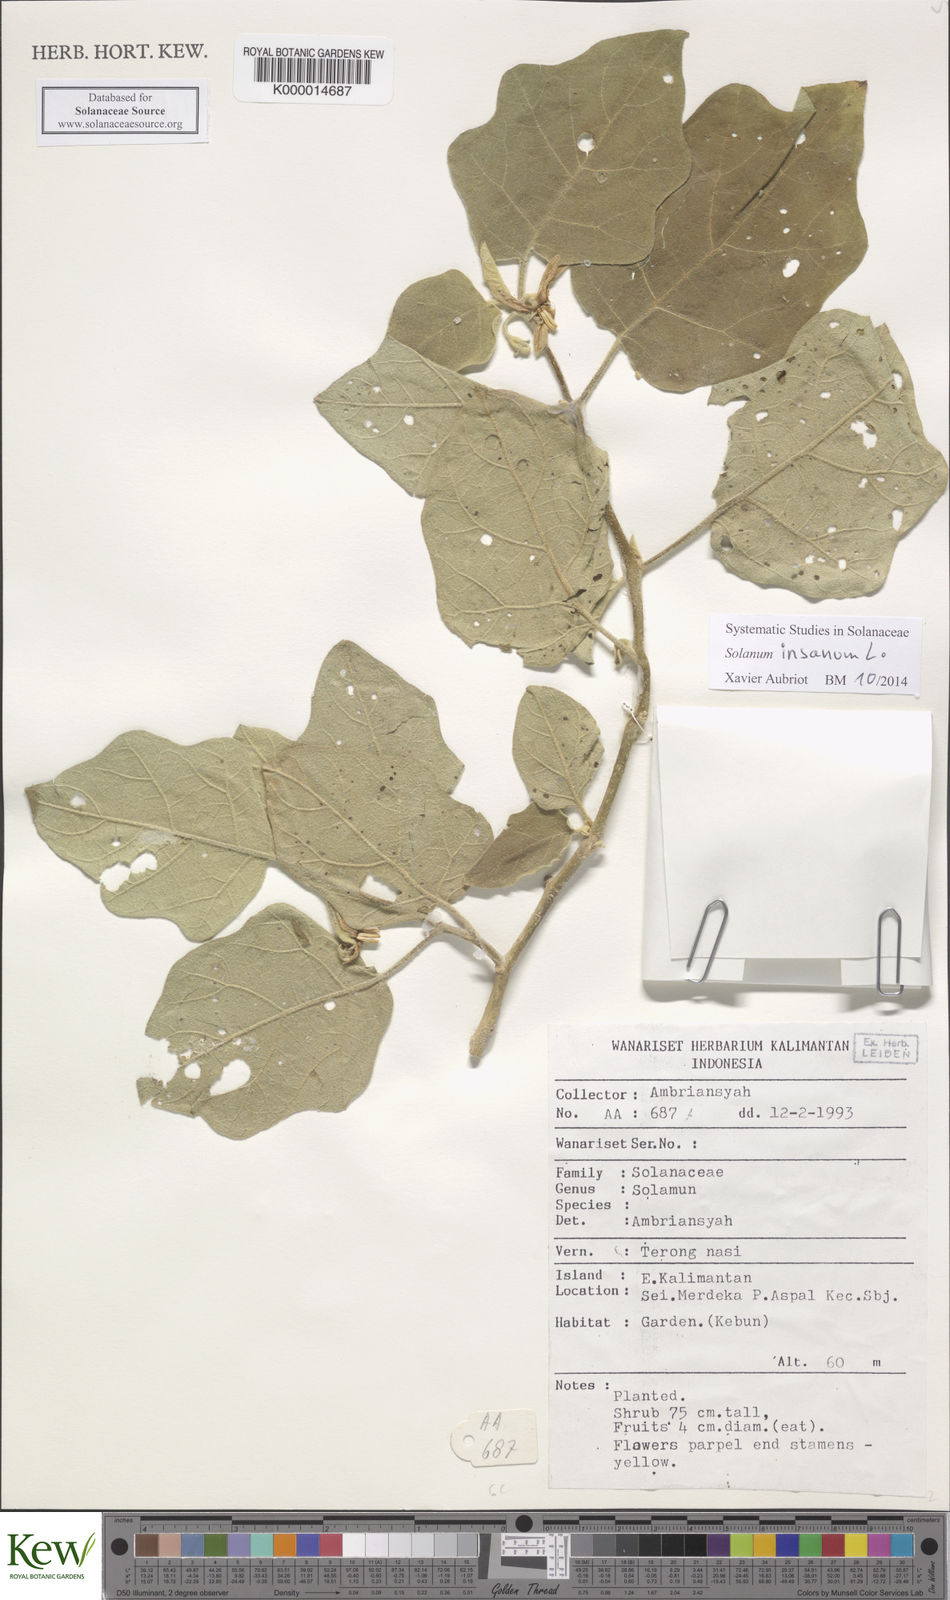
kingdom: Plantae
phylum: Tracheophyta
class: Magnoliopsida
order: Solanales
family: Solanaceae
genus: Solanum
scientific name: Solanum insanum
